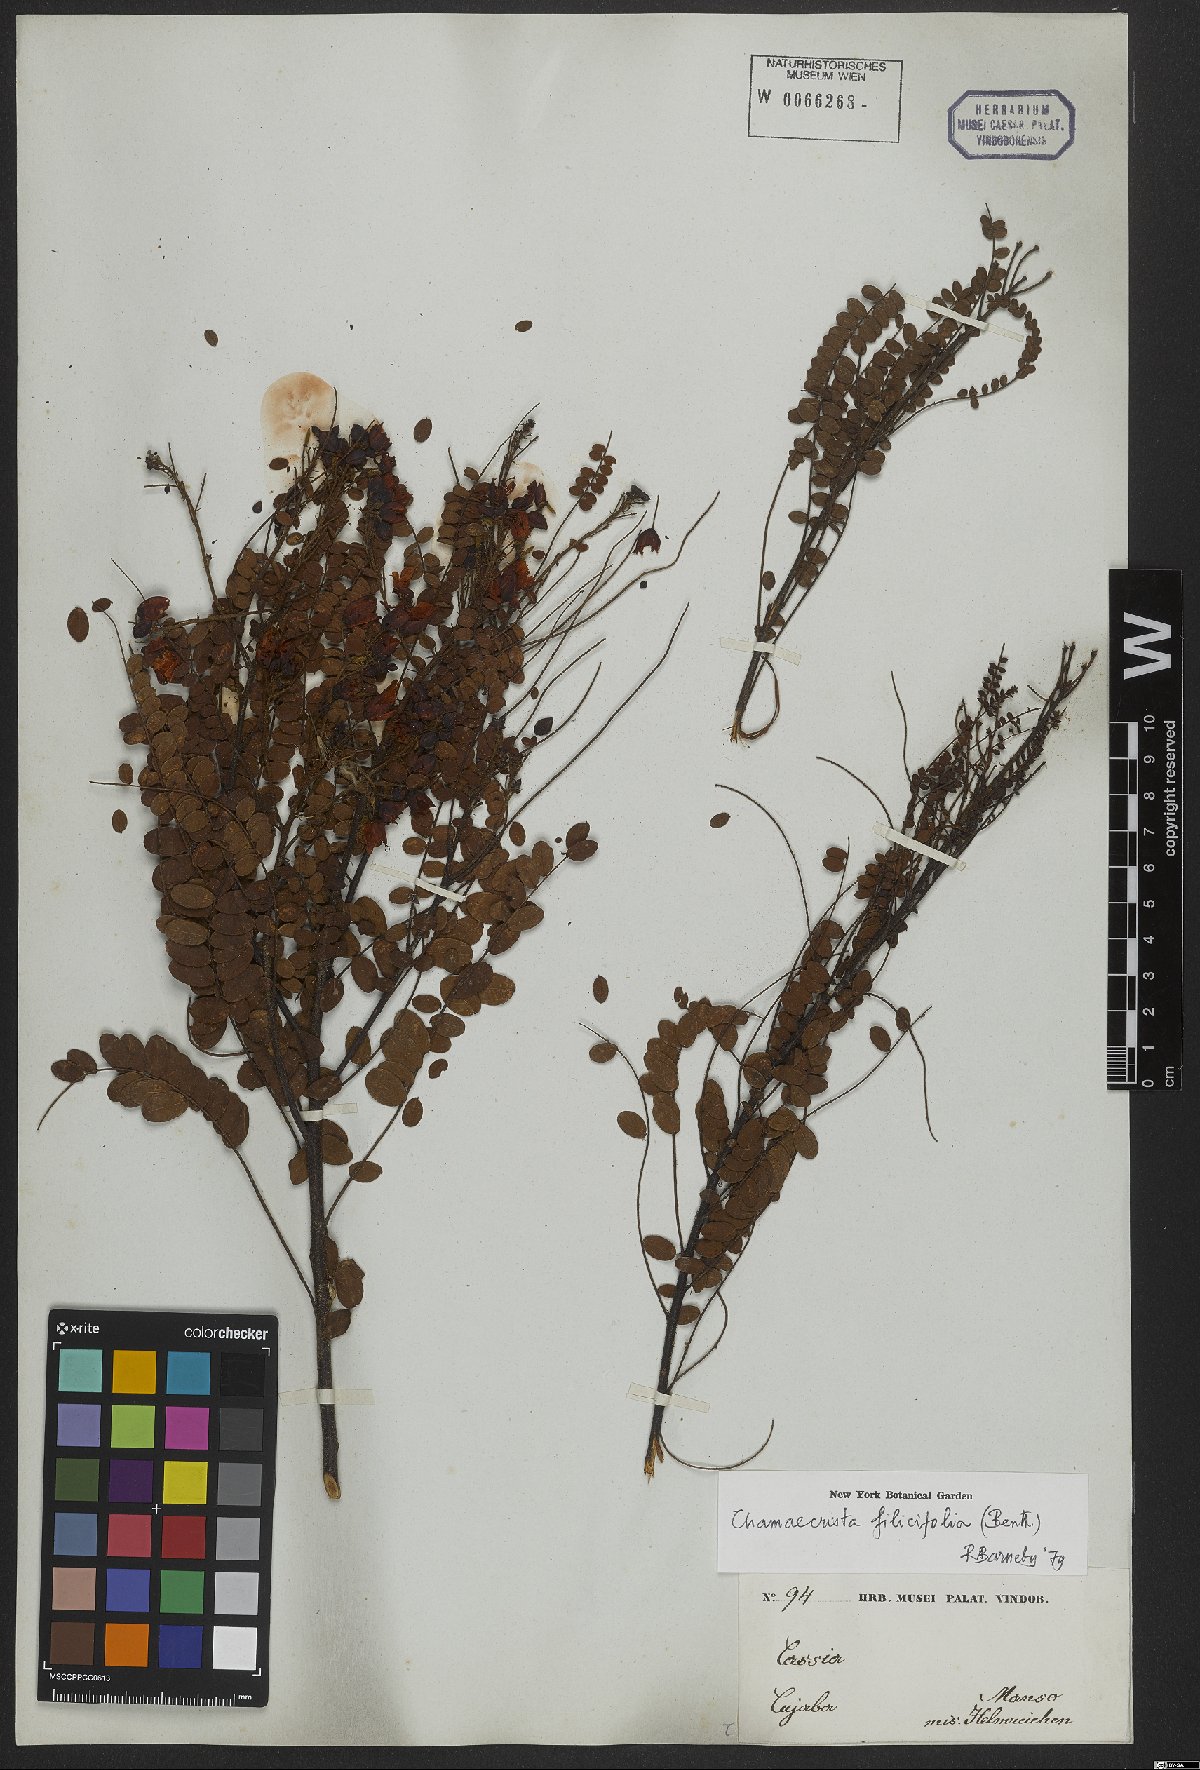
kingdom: Plantae
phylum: Tracheophyta
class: Magnoliopsida
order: Fabales
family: Fabaceae
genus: Chamaecrista
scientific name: Chamaecrista filicifolia
